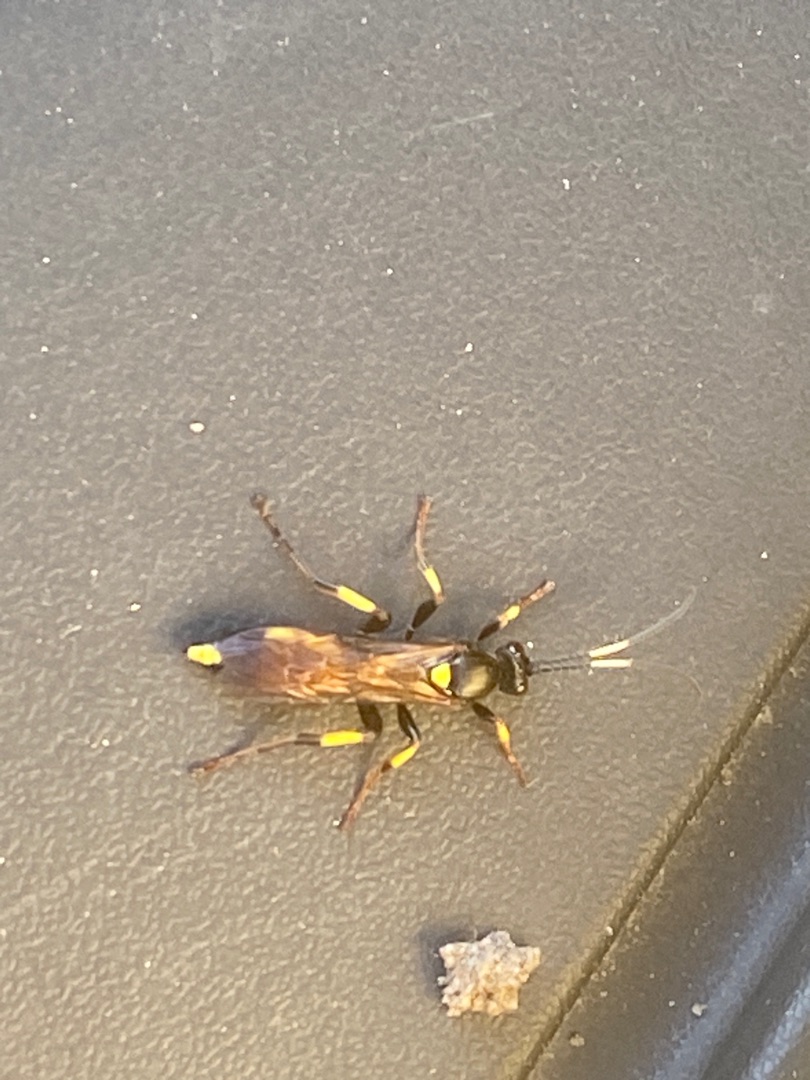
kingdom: Animalia
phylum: Arthropoda
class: Insecta
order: Hymenoptera
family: Ichneumonidae
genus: Ichneumon
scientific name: Ichneumon stramentor
